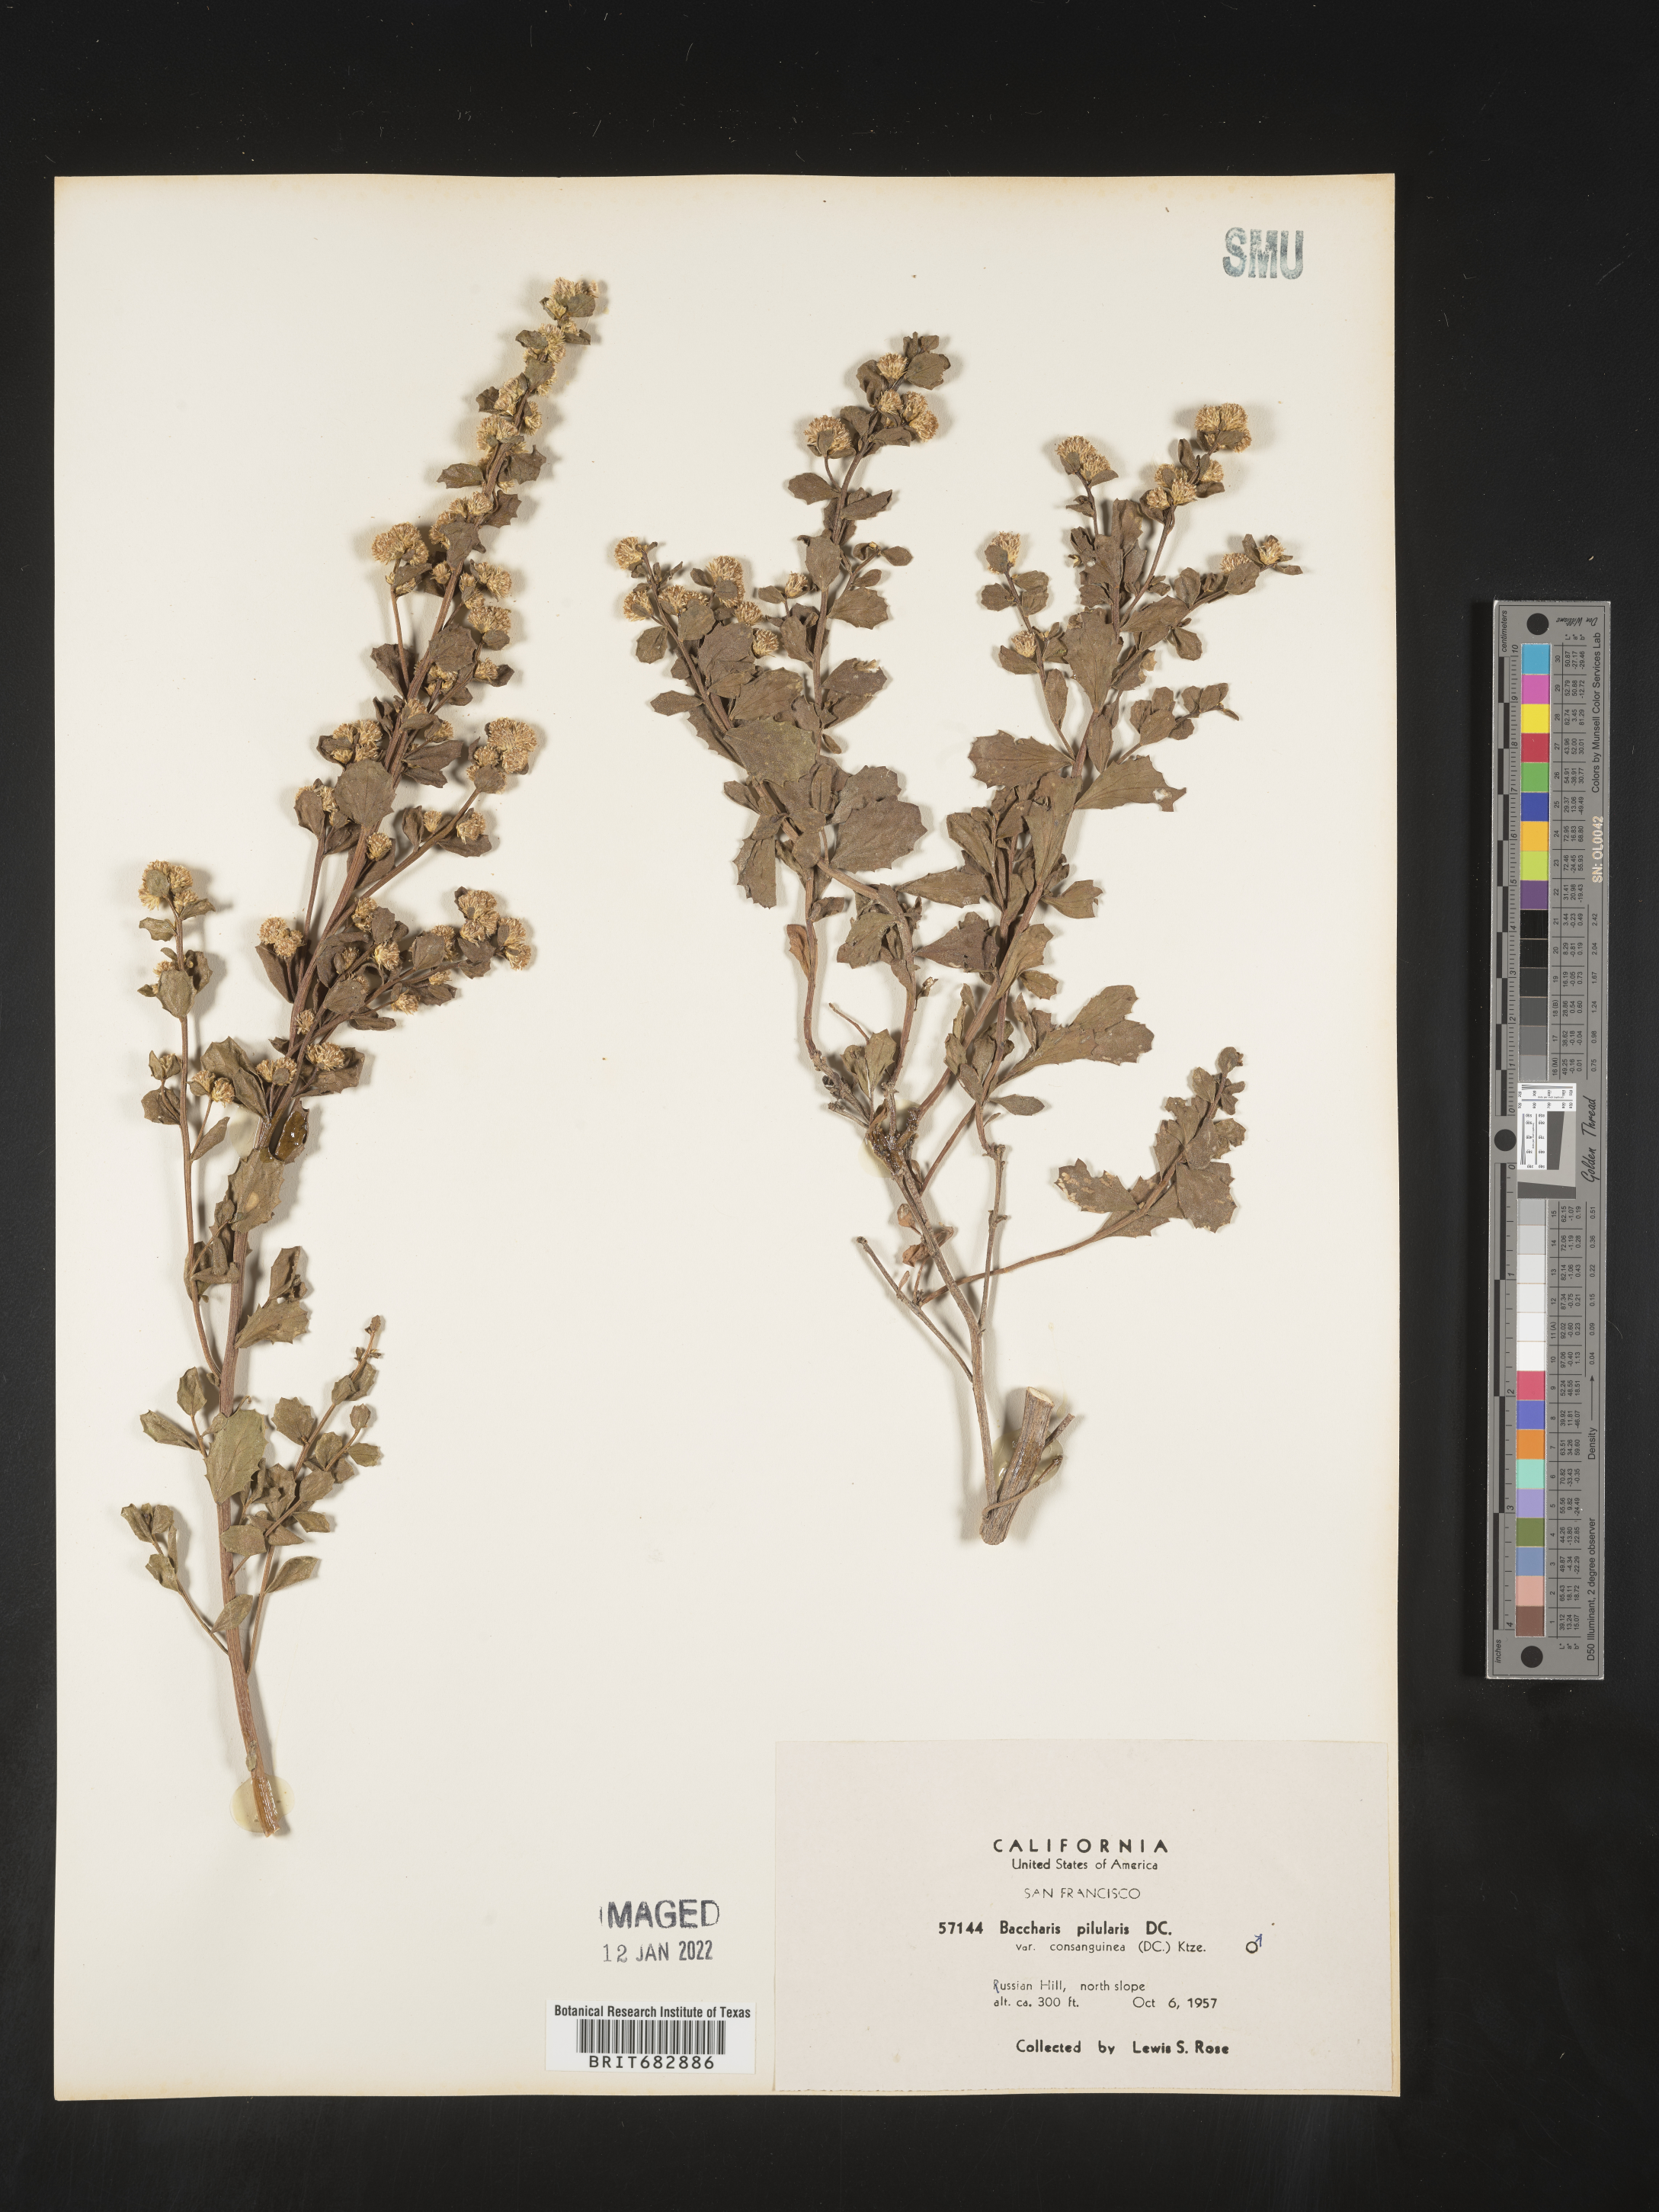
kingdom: Plantae
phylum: Tracheophyta
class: Magnoliopsida
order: Asterales
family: Asteraceae
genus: Baccharis
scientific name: Baccharis pilularis
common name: Coyotebrush
